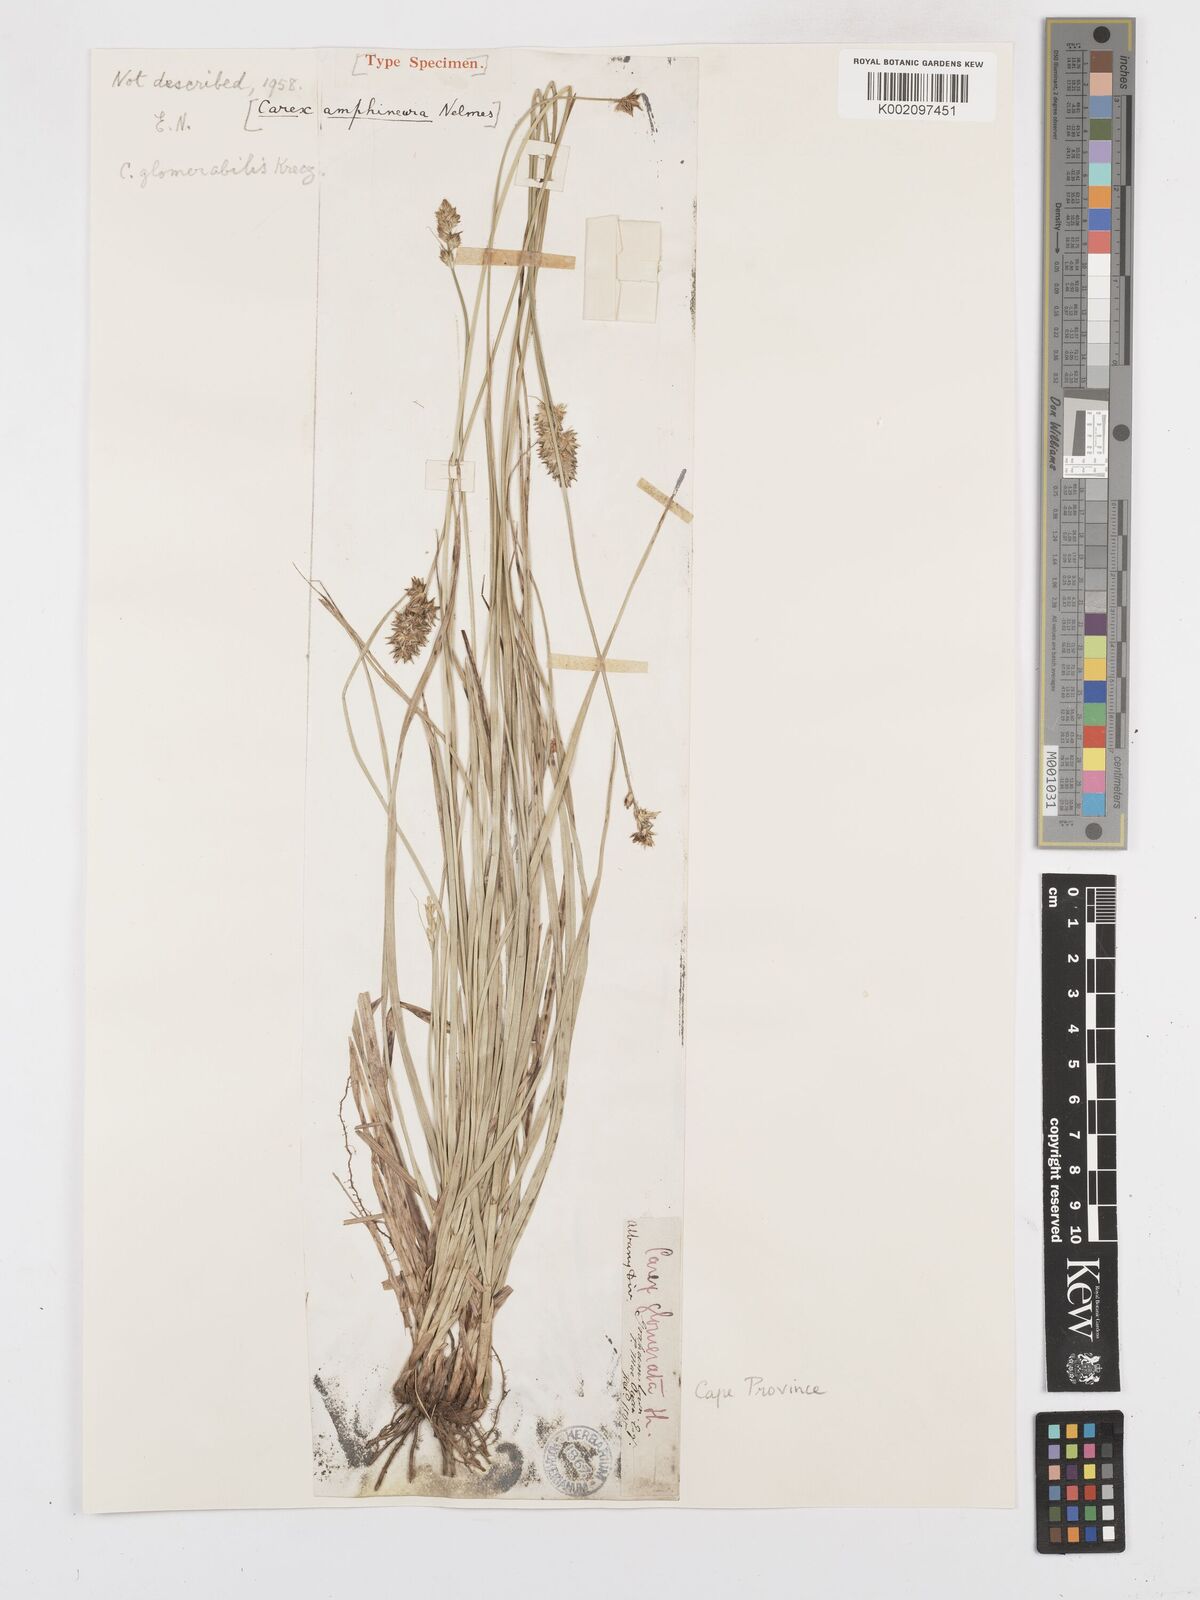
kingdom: Plantae
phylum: Tracheophyta
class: Liliopsida
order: Poales
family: Cyperaceae
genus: Carex
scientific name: Carex glomerata
